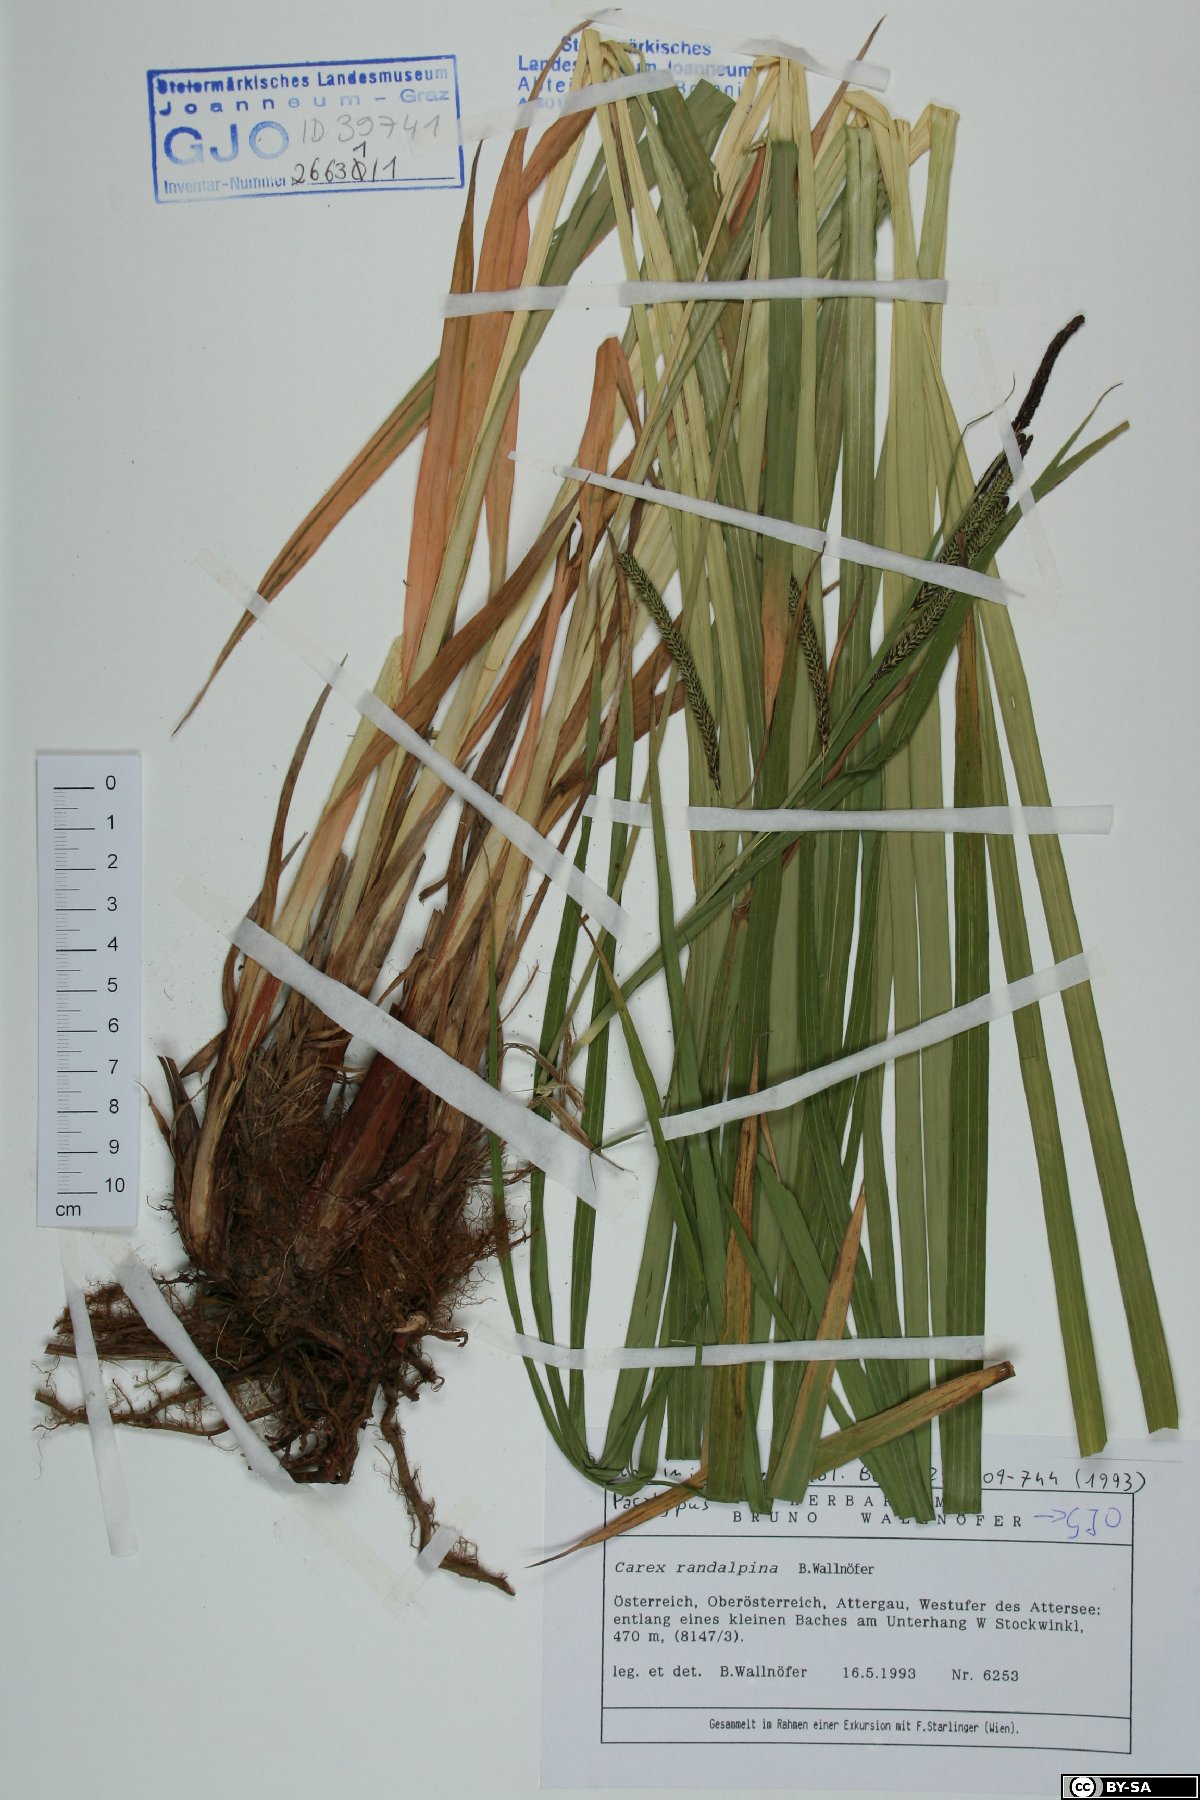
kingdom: Plantae
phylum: Tracheophyta
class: Liliopsida
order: Poales
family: Cyperaceae
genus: Carex
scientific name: Carex randalpina
